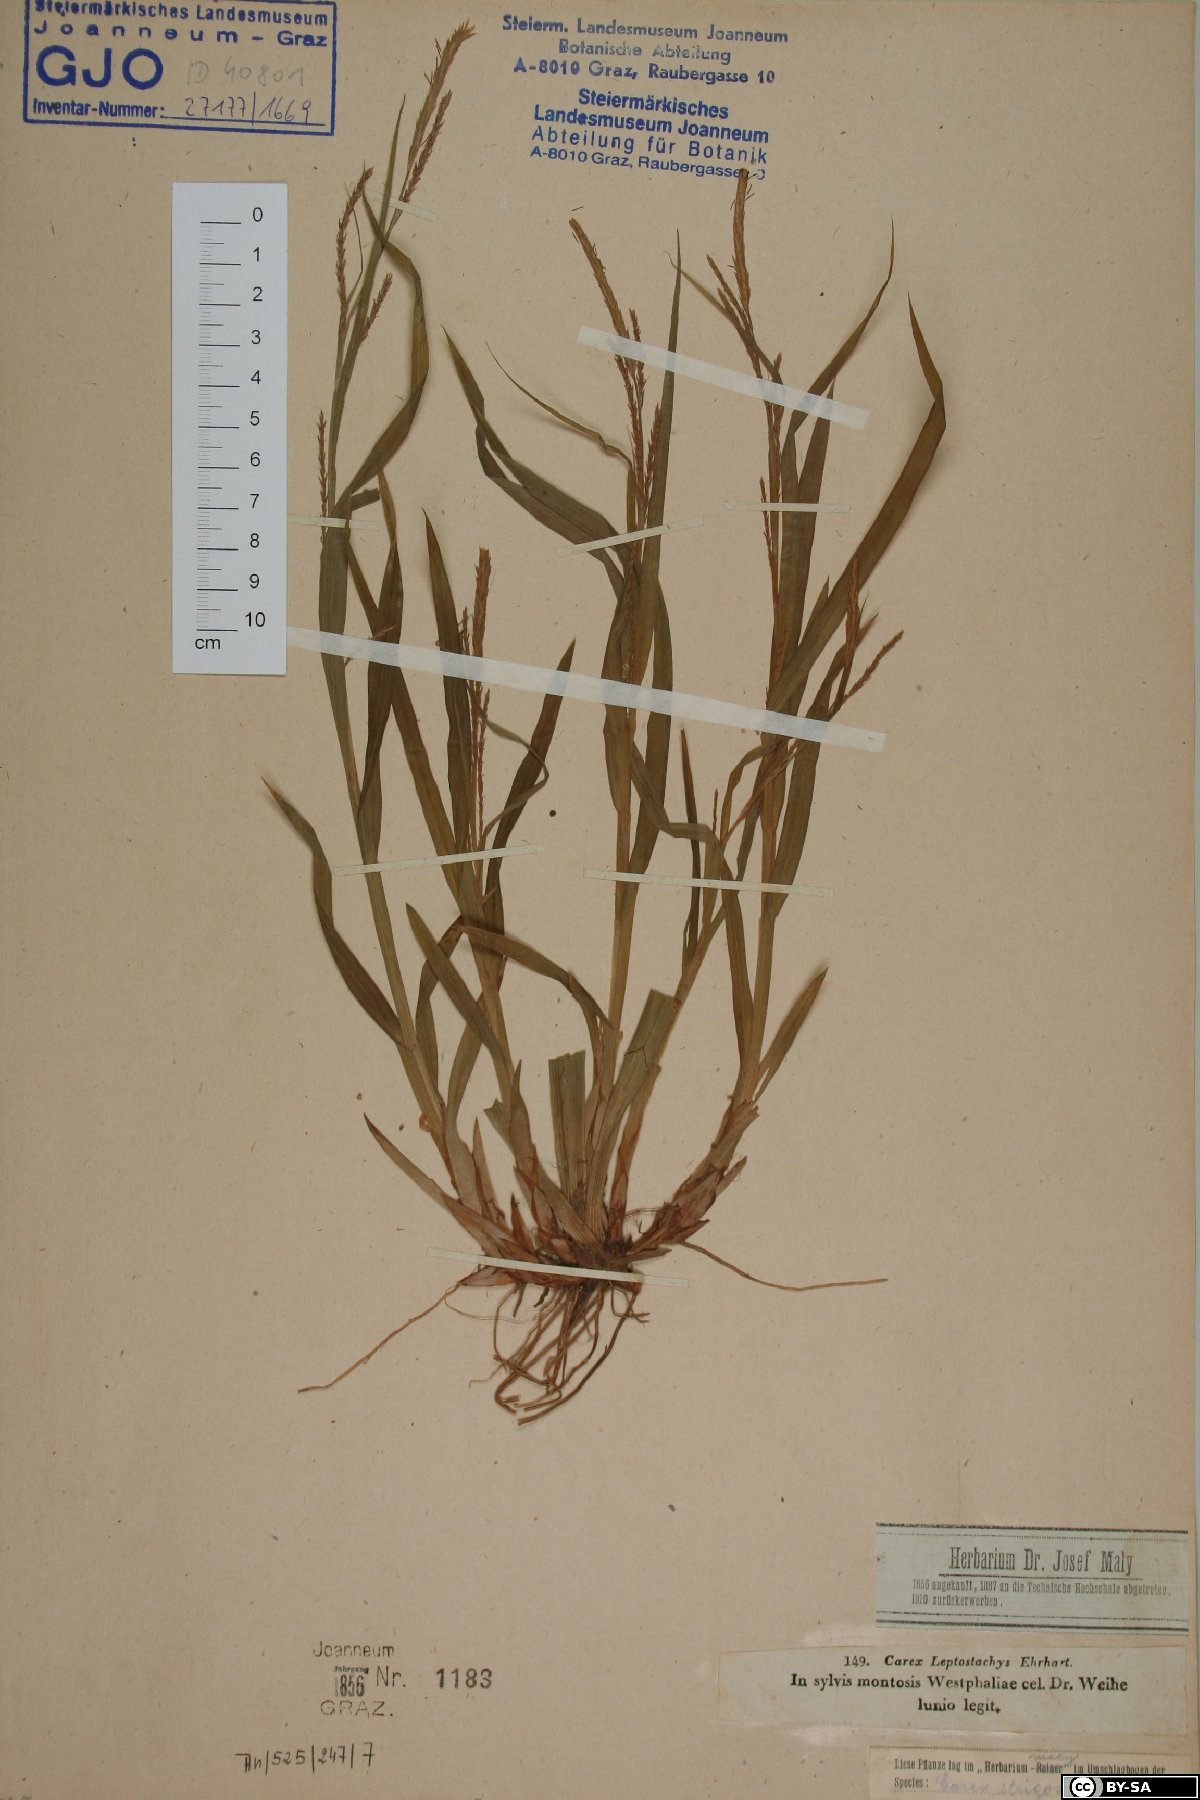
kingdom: Plantae
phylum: Tracheophyta
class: Liliopsida
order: Poales
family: Cyperaceae
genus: Carex
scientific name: Carex strigosa
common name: Thin-spiked wood-sedge
